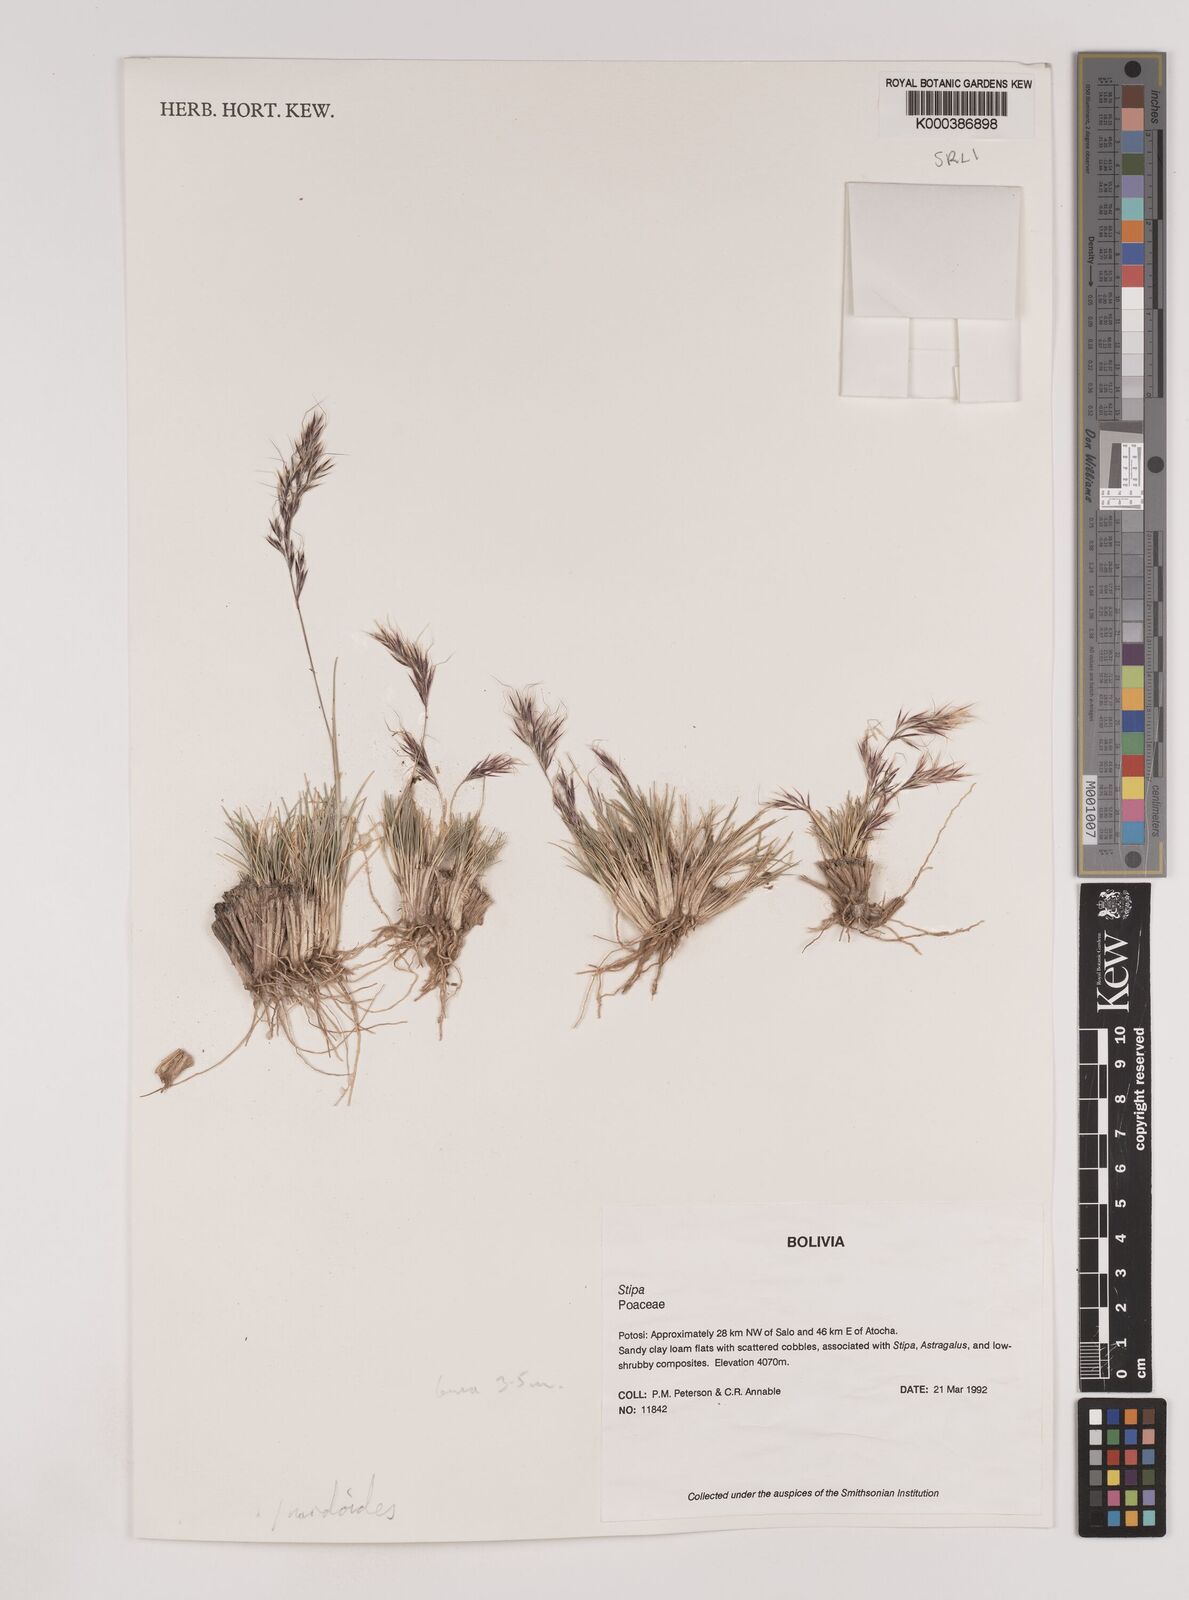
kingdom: Plantae
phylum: Tracheophyta
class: Liliopsida
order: Poales
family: Poaceae
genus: Nassella
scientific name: Nassella nardoides
